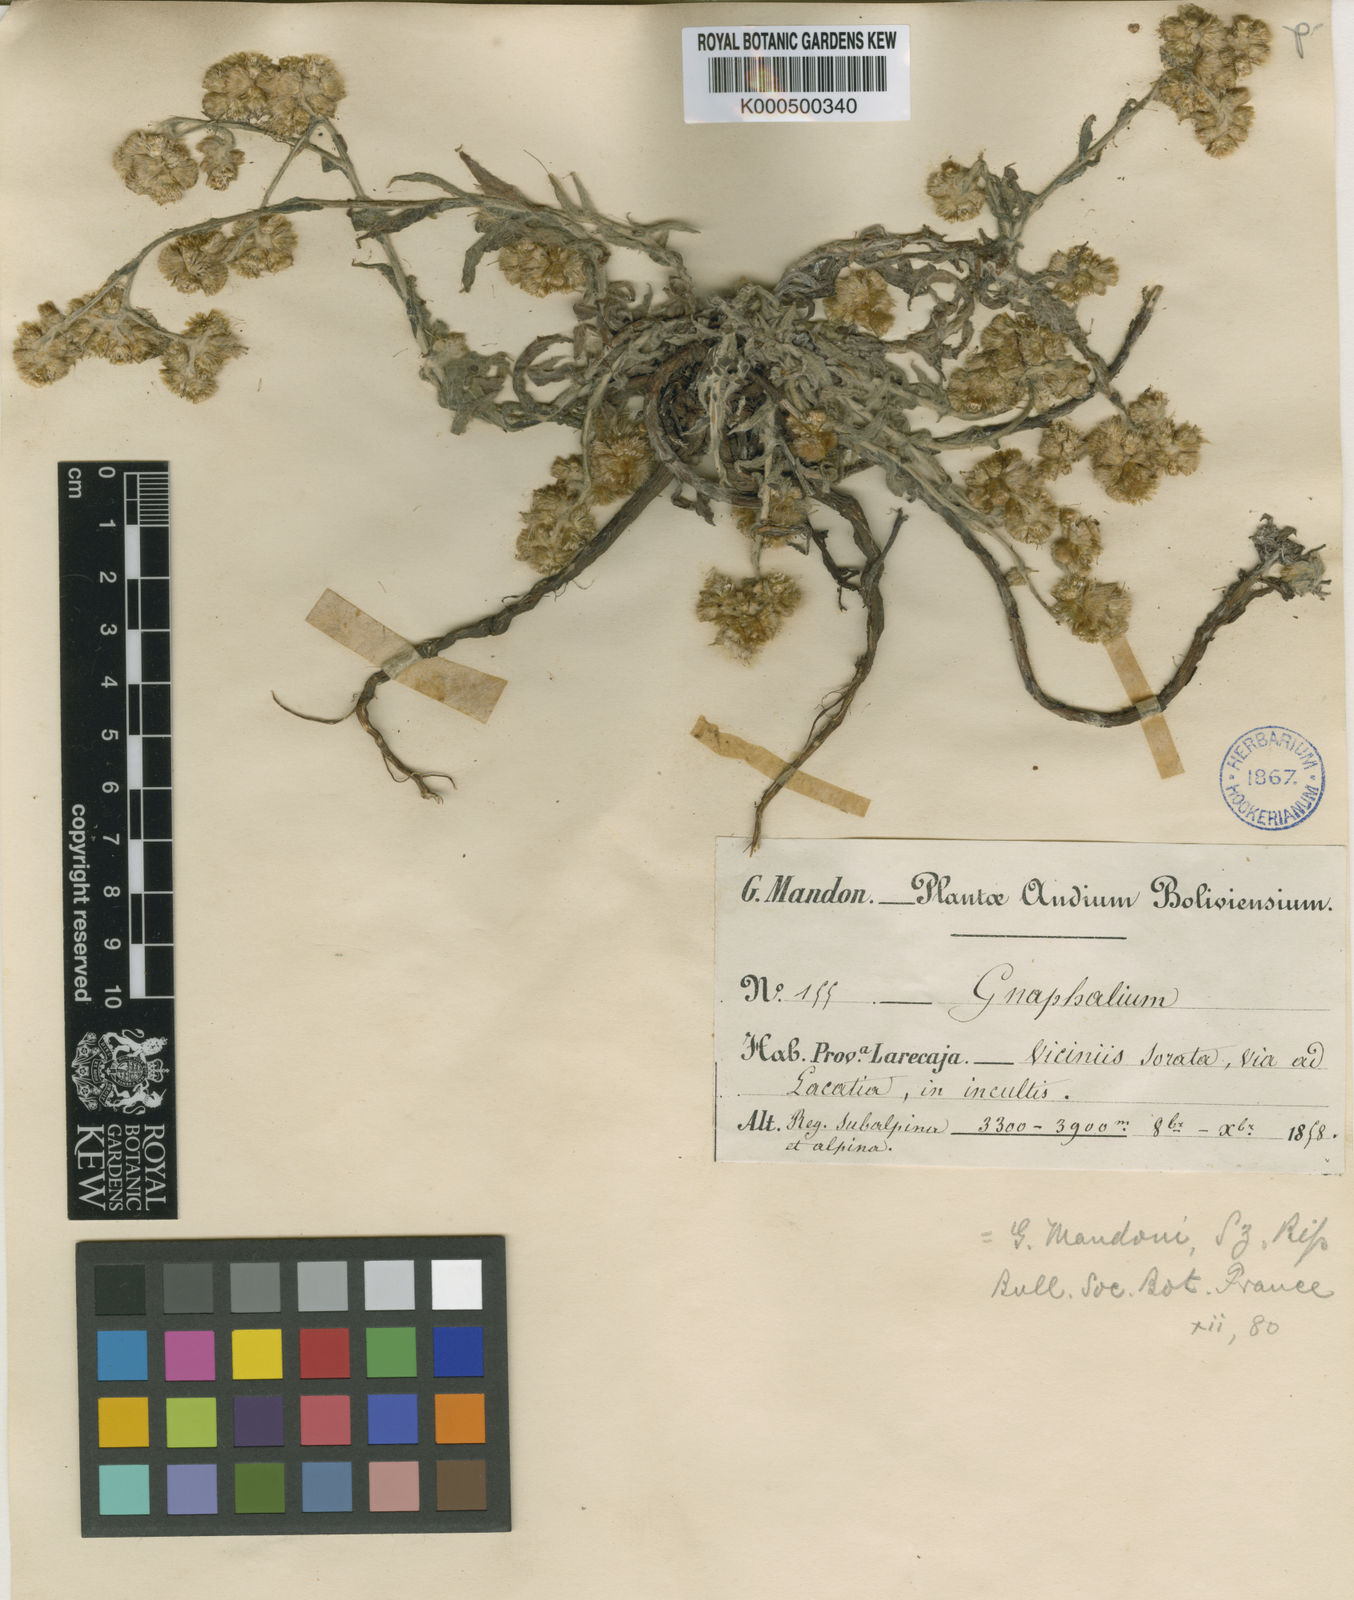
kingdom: Plantae
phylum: Tracheophyta
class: Magnoliopsida
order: Asterales
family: Asteraceae
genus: Pseudognaphalium
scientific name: Pseudognaphalium gaudichaudianum
